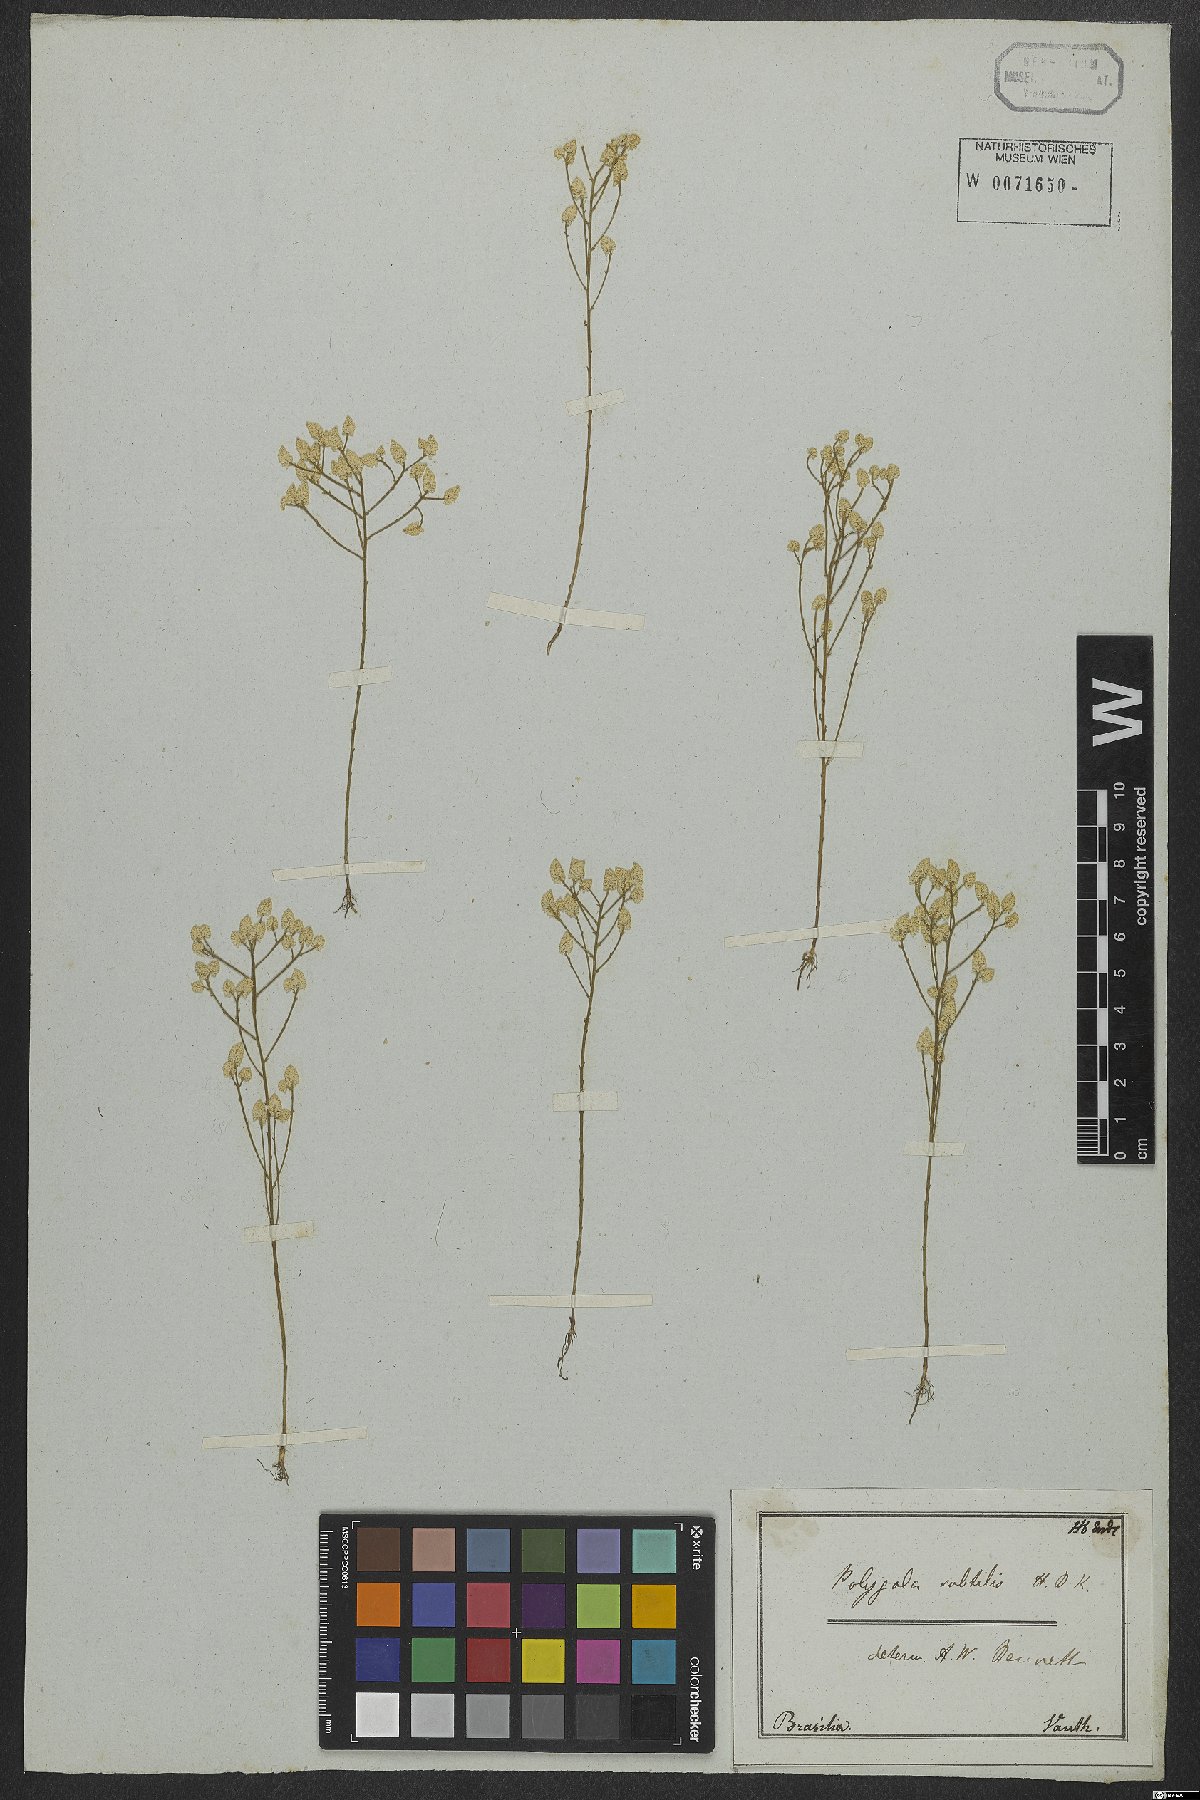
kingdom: Plantae
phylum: Tracheophyta
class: Magnoliopsida
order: Fabales
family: Polygalaceae
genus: Polygala
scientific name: Polygala subtilis
